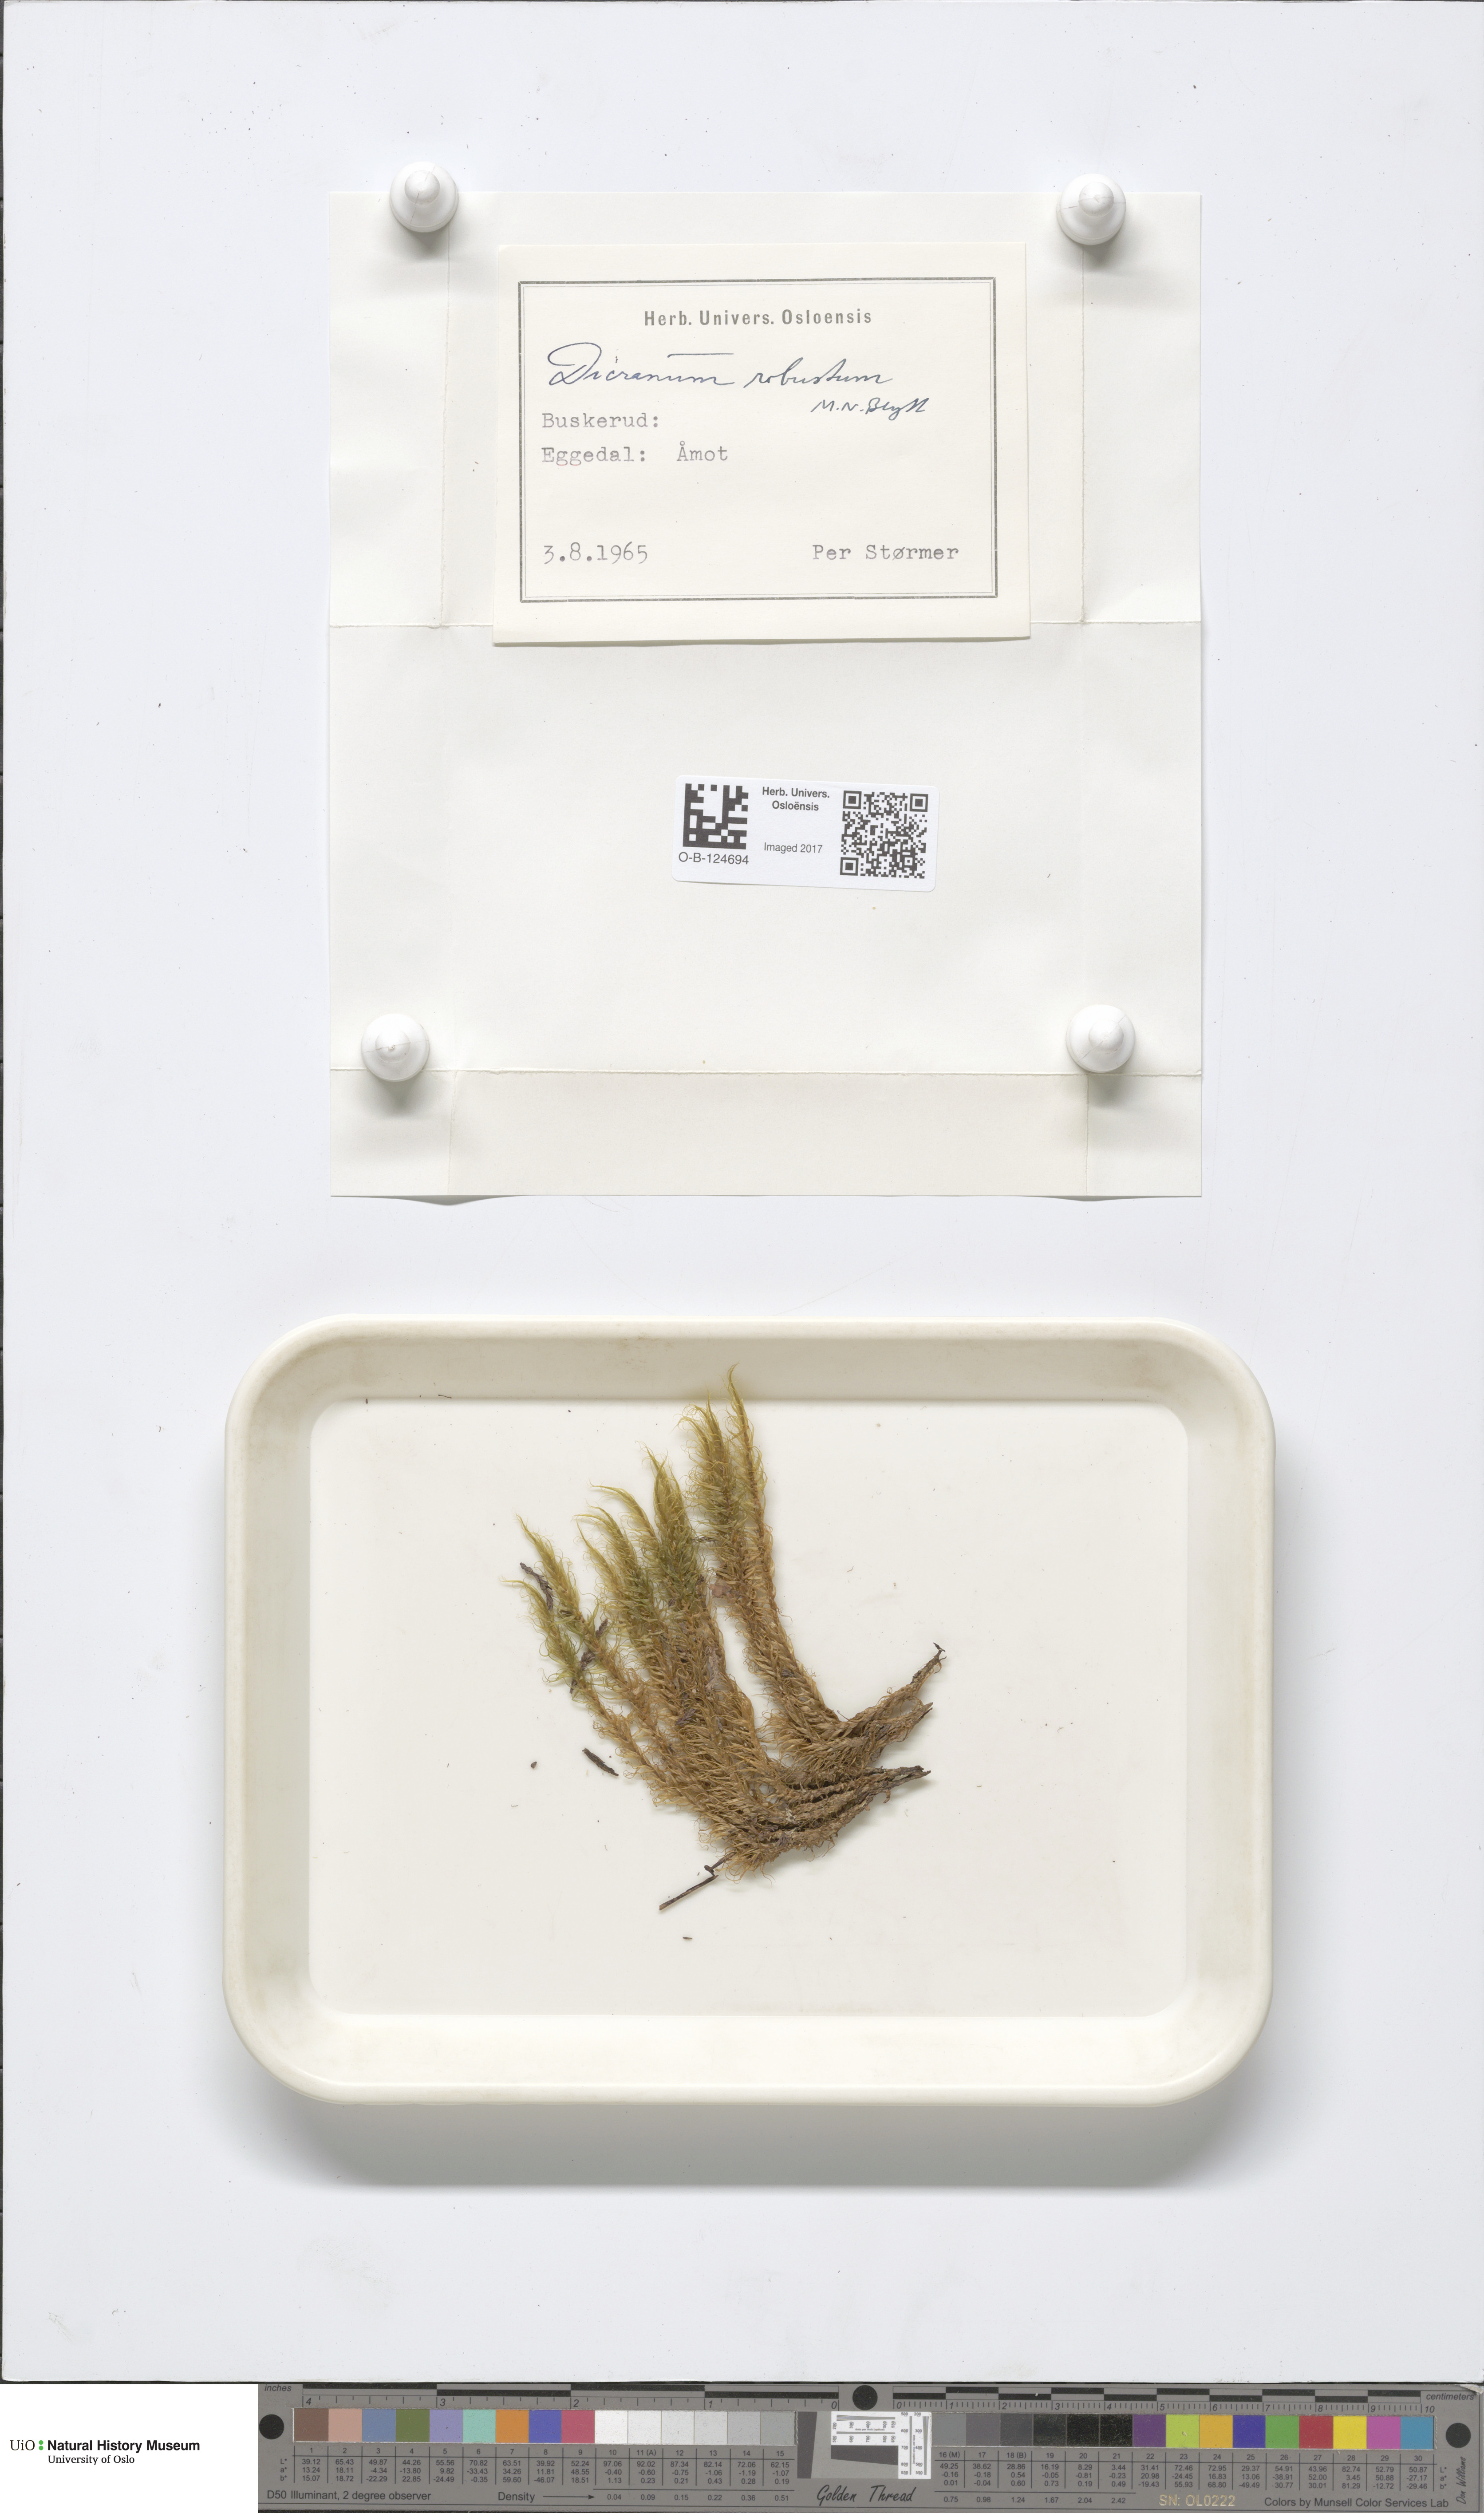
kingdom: Plantae
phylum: Bryophyta
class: Bryopsida
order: Dicranales
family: Dicranaceae
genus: Dicranum
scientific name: Dicranum drummondii
